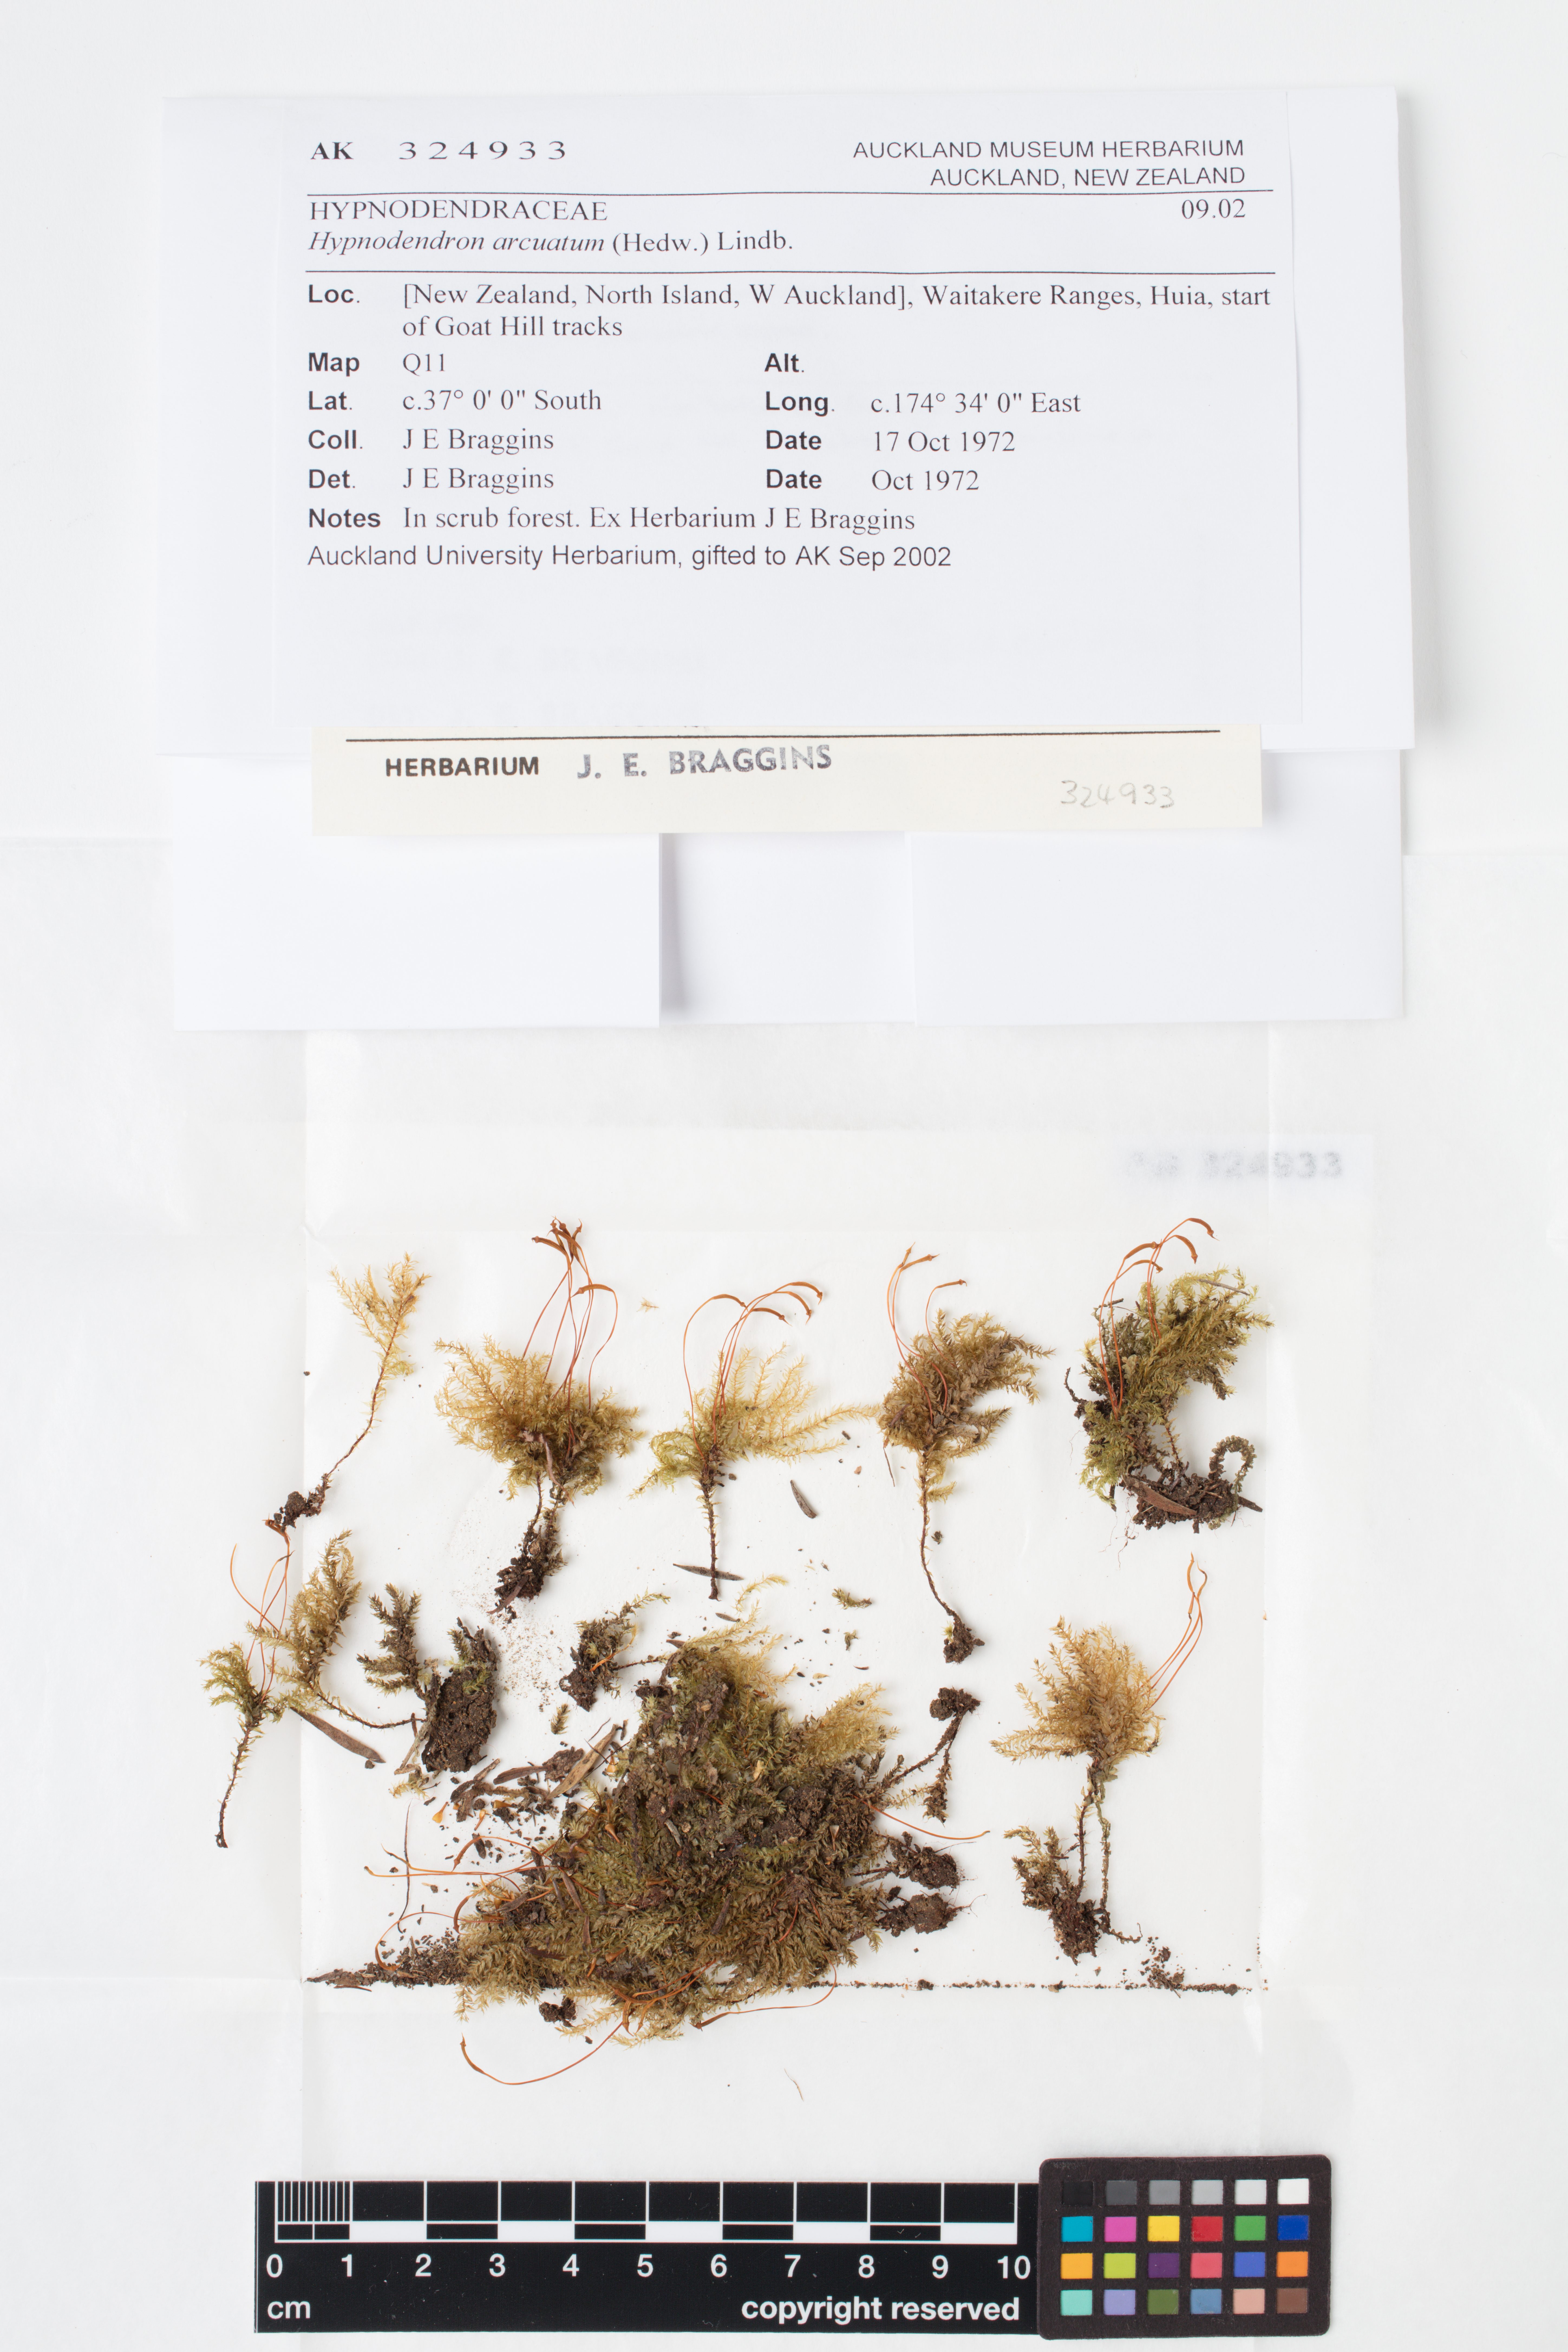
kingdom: Plantae
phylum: Bryophyta
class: Bryopsida
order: Hypnodendrales
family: Spiridentaceae
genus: Hypnodendron
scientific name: Hypnodendron arcuatum
